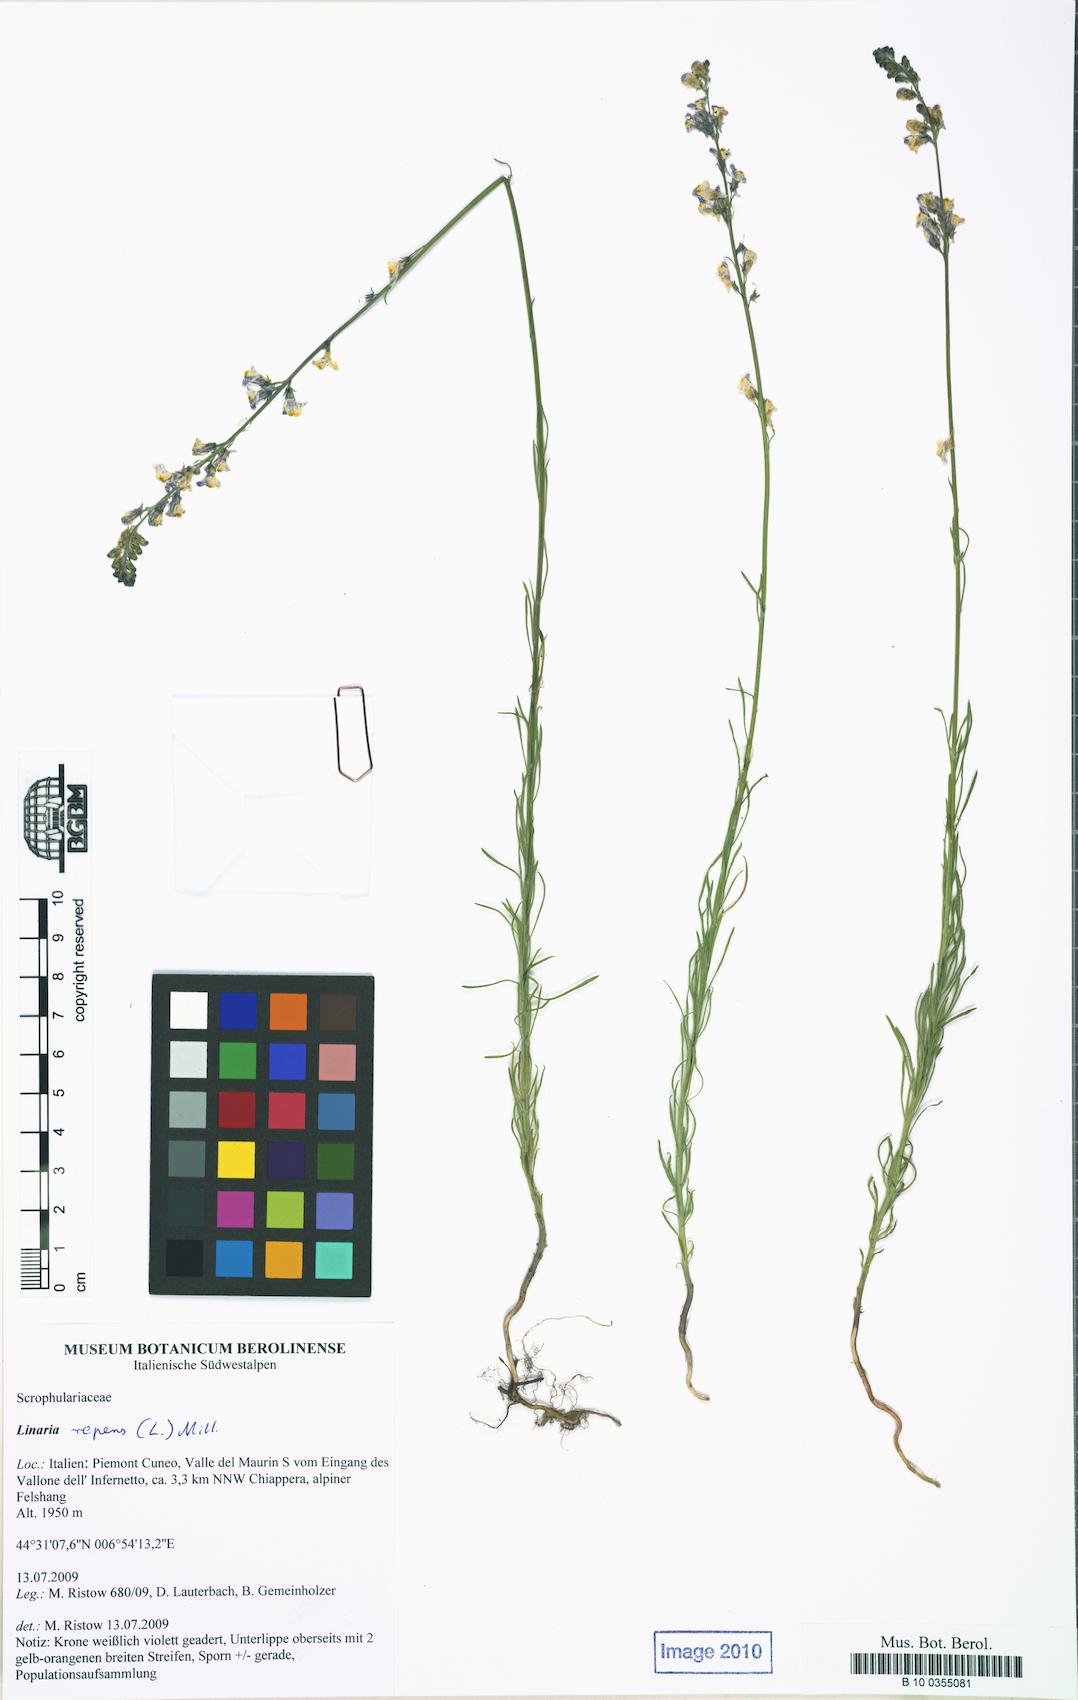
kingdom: Plantae
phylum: Tracheophyta
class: Magnoliopsida
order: Lamiales
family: Plantaginaceae
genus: Linaria
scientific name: Linaria repens
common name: Pale toadflax
